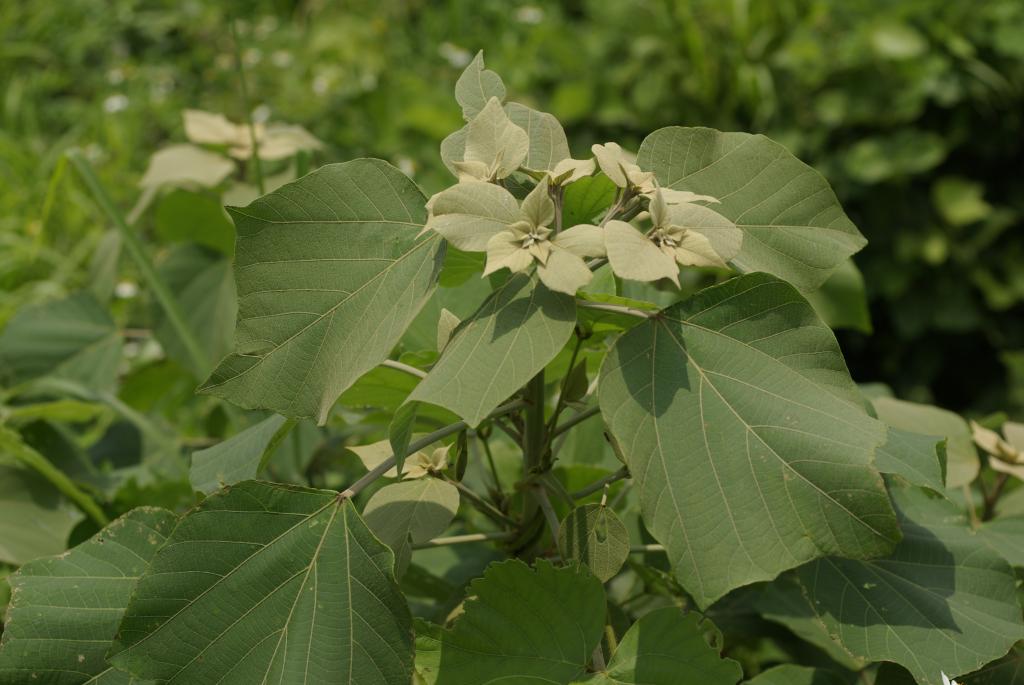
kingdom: Plantae
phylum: Tracheophyta
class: Magnoliopsida
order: Malpighiales
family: Euphorbiaceae
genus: Mallotus
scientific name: Mallotus paniculatus
